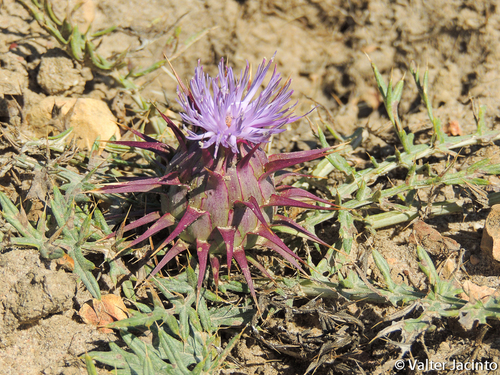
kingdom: Plantae
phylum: Tracheophyta
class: Magnoliopsida
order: Asterales
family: Asteraceae
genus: Cynara
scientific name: Cynara algarbiensis
